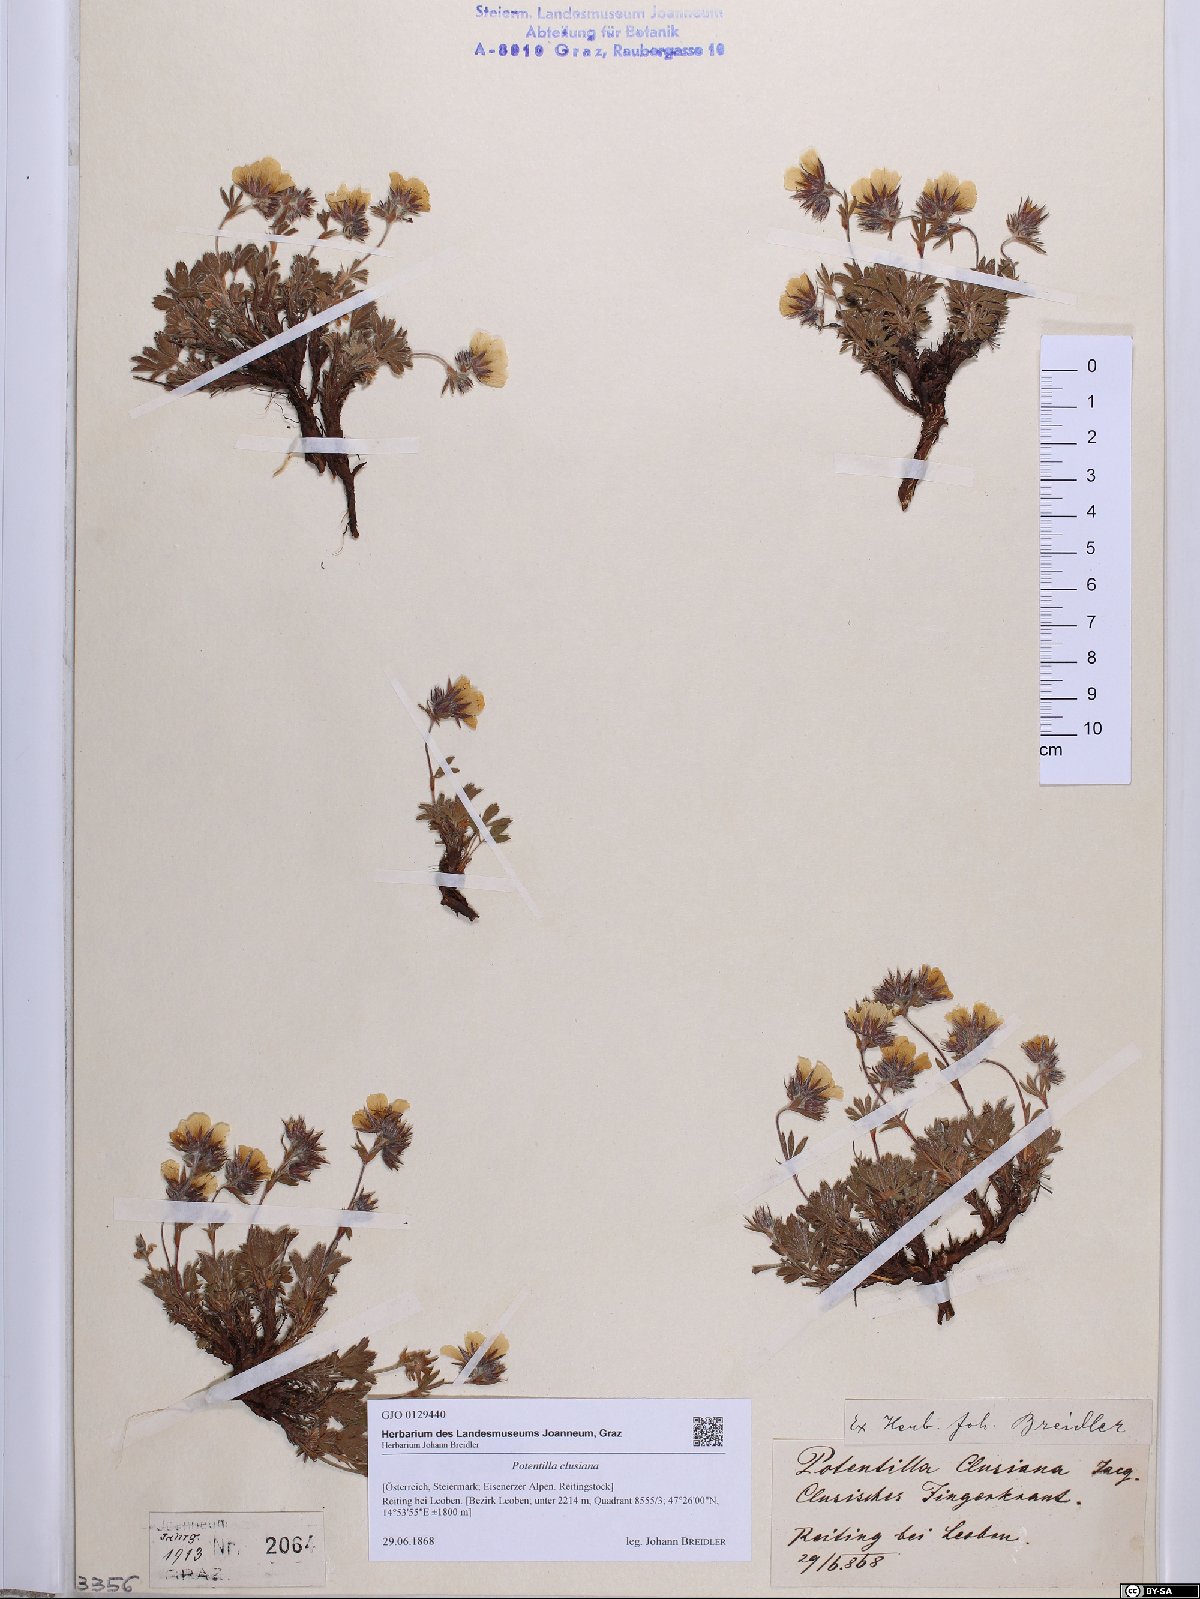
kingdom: Plantae
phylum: Tracheophyta
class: Magnoliopsida
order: Rosales
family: Rosaceae
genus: Potentilla
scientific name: Potentilla clusiana
